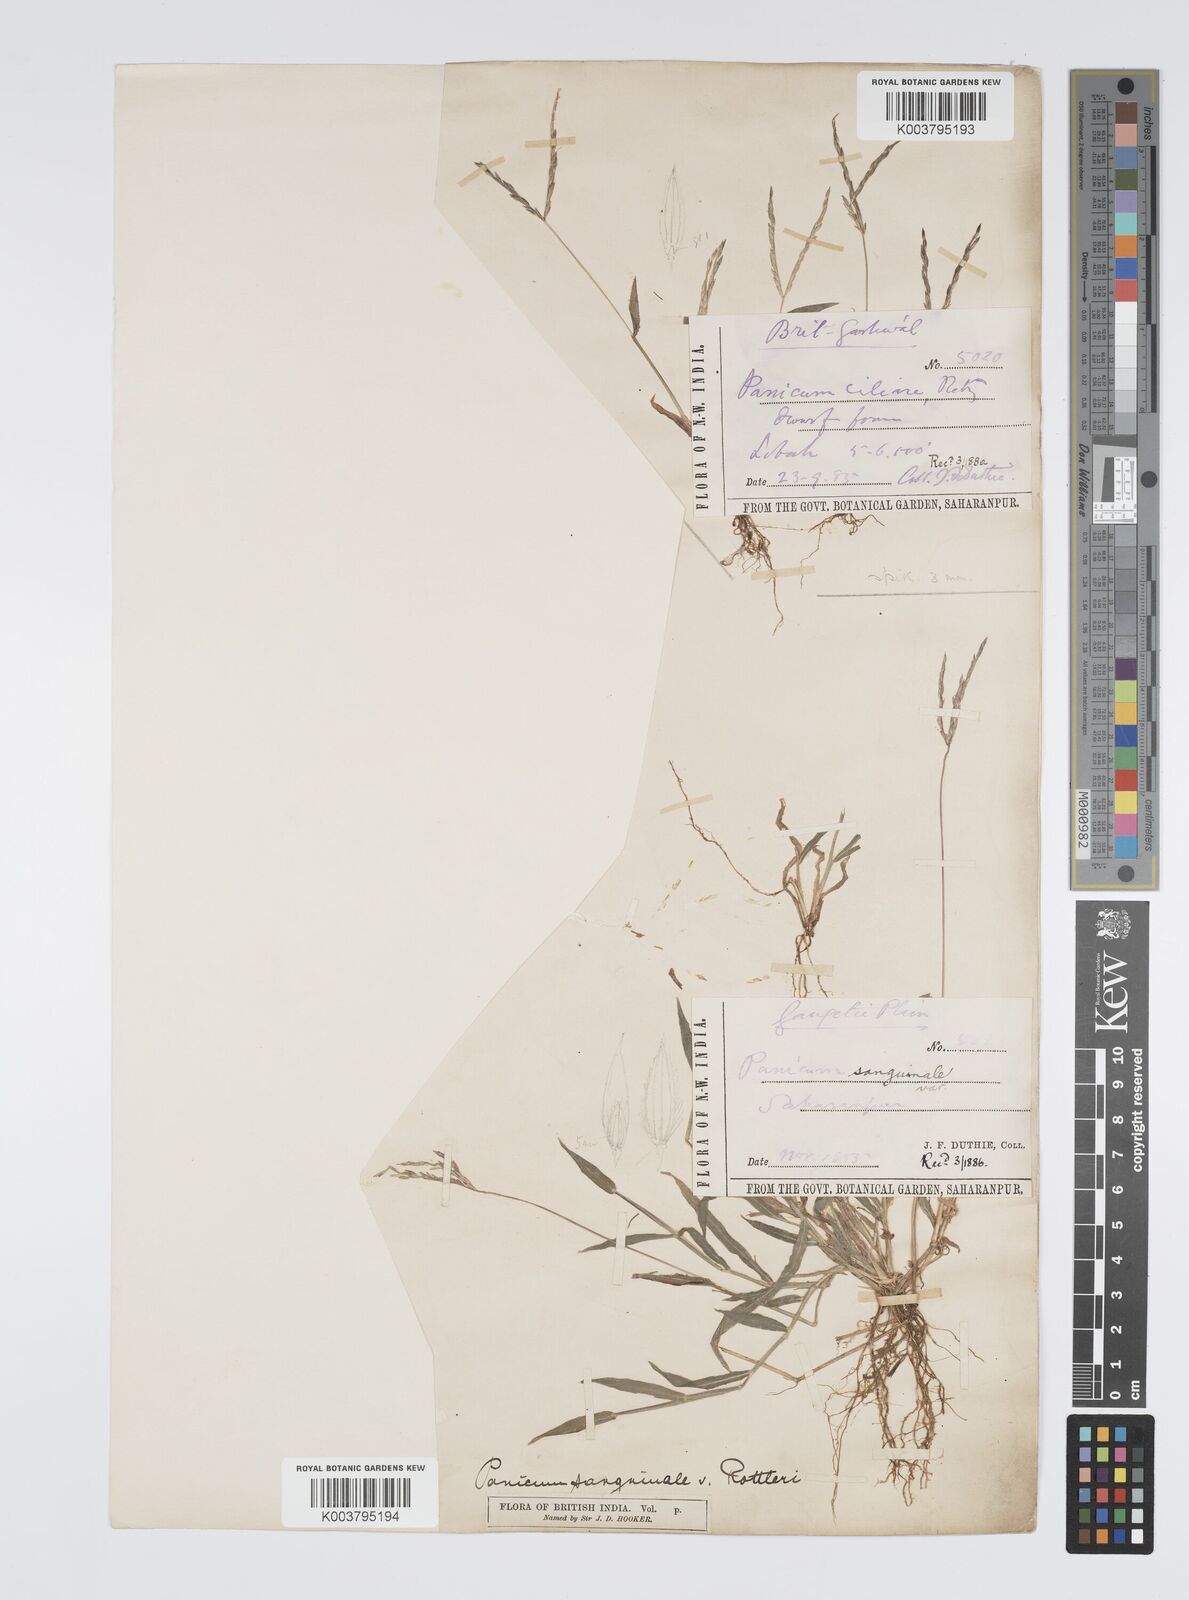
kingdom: Plantae
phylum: Tracheophyta
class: Liliopsida
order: Poales
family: Poaceae
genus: Digitaria
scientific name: Digitaria ciliaris
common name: Tropical finger-grass
